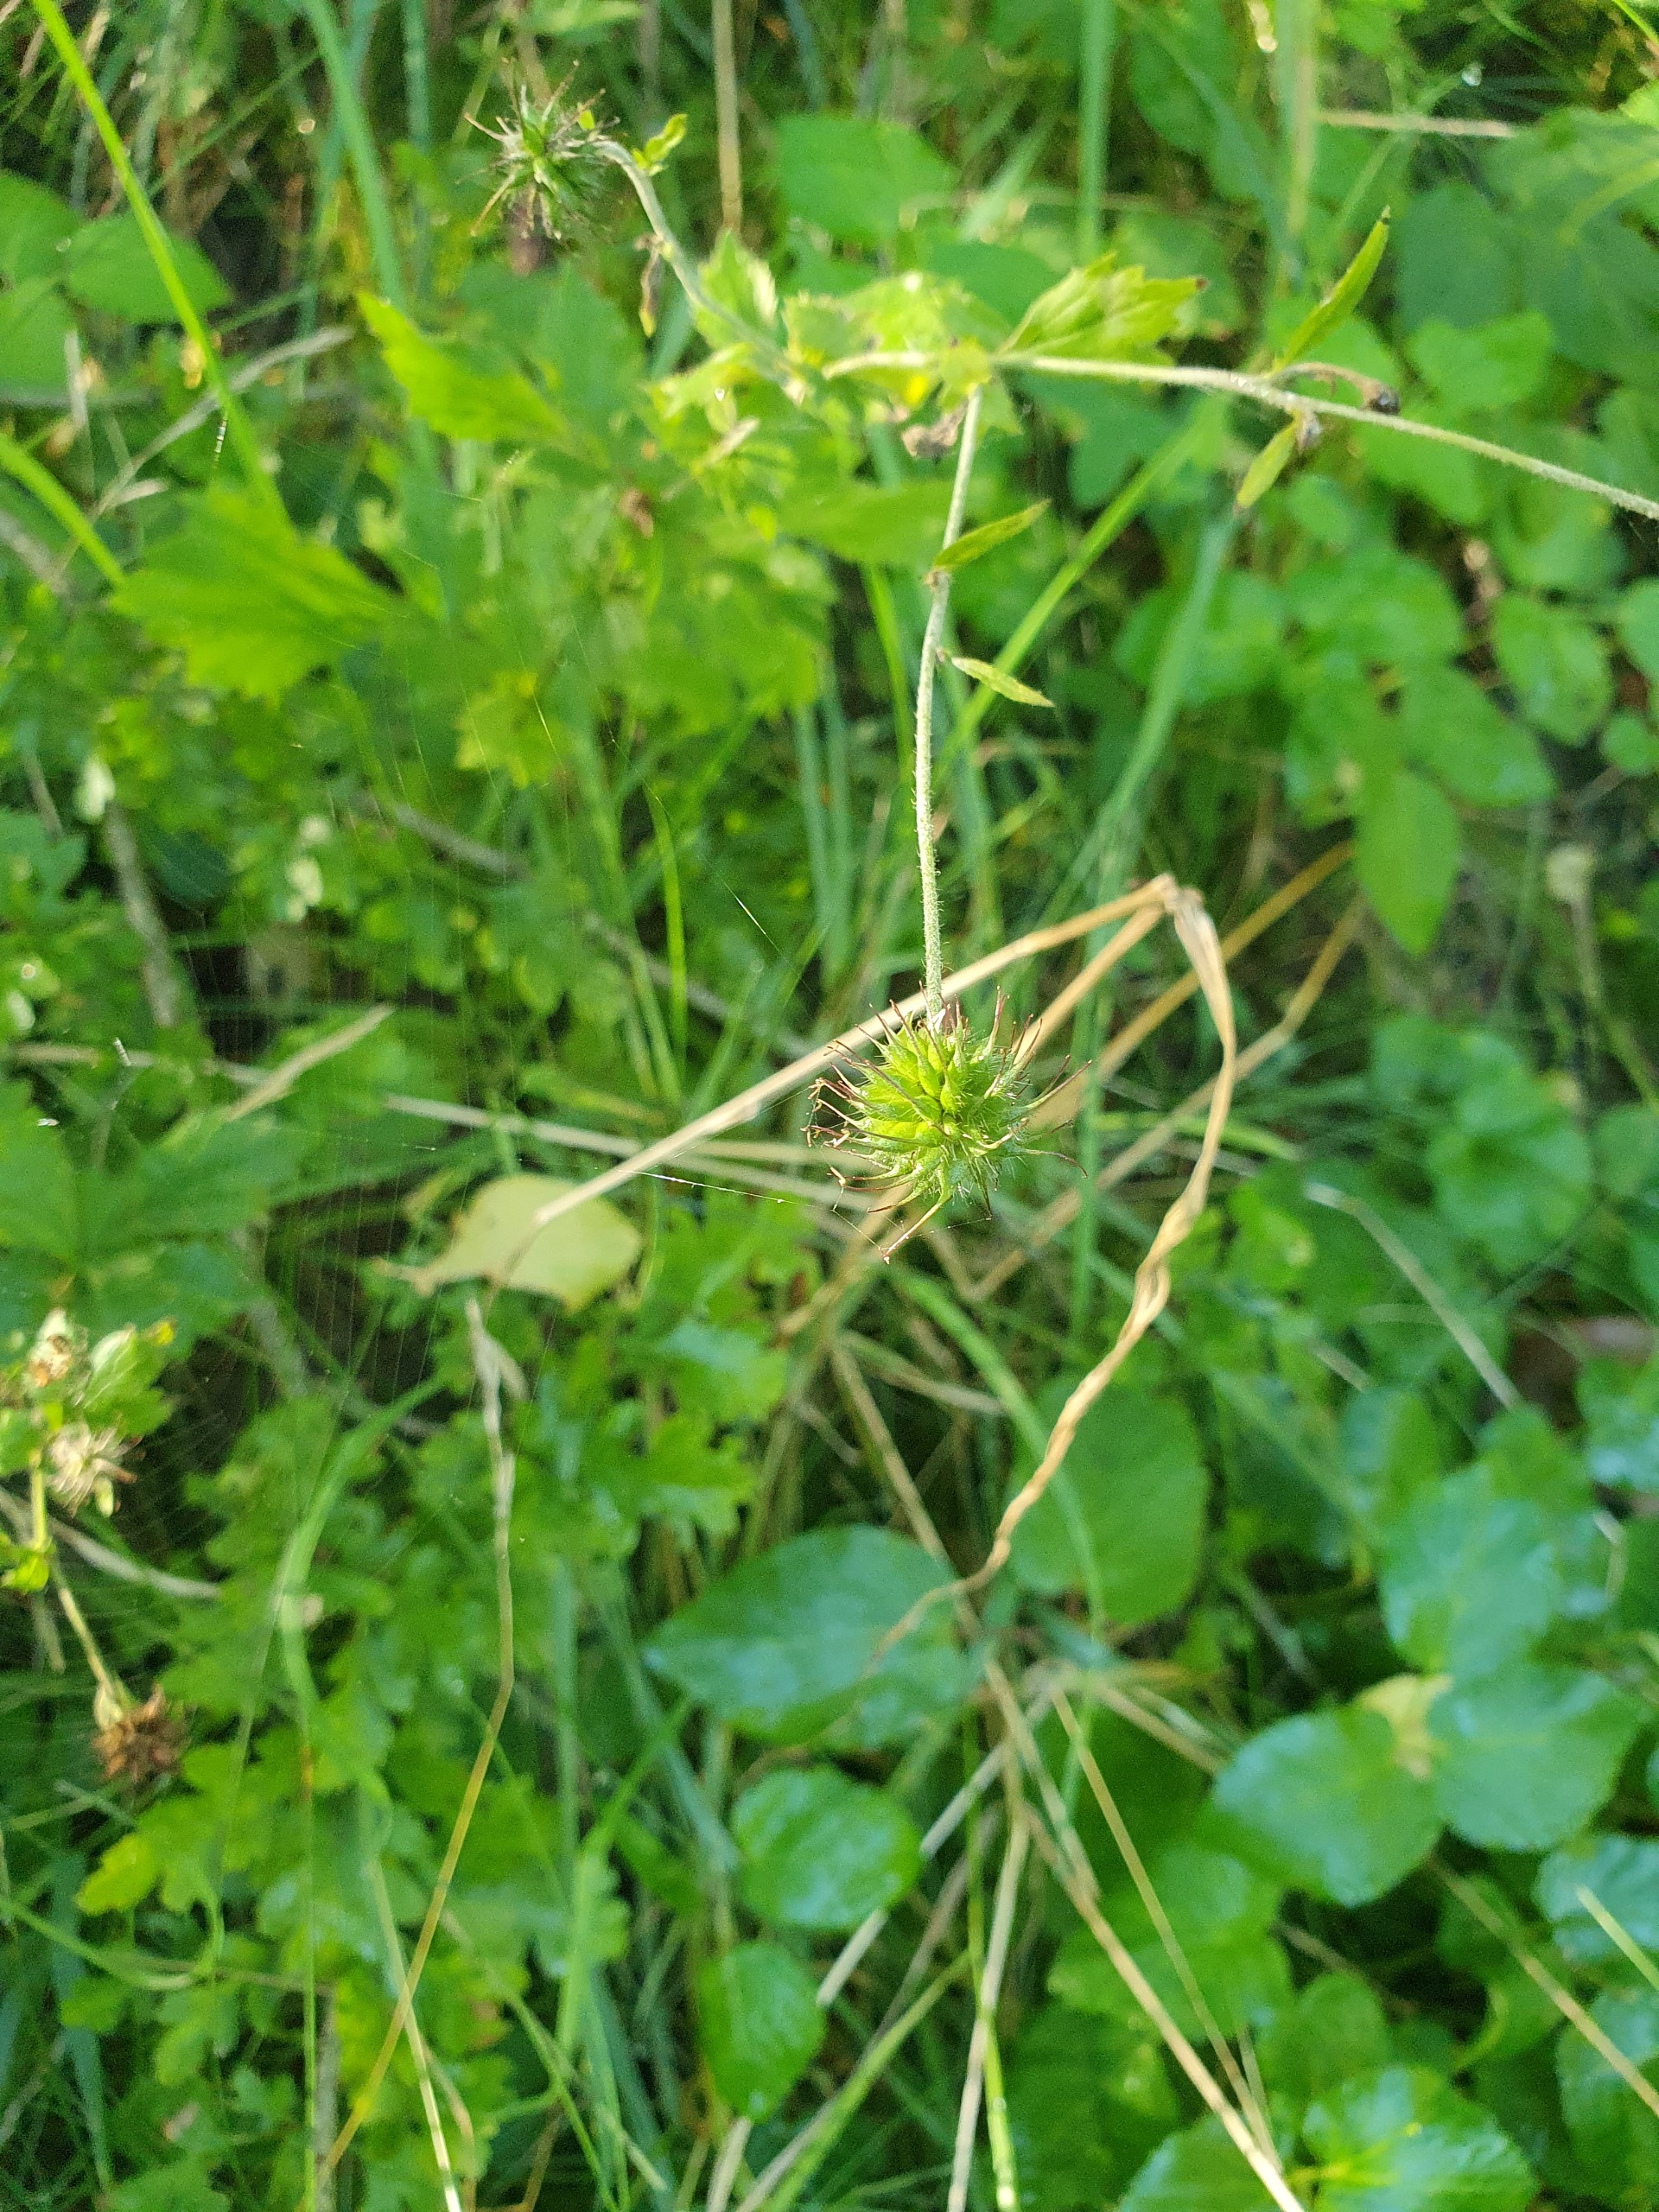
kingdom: Plantae
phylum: Tracheophyta
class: Magnoliopsida
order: Rosales
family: Rosaceae
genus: Geum
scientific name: Geum urbanum
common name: Feber-nellikerod
